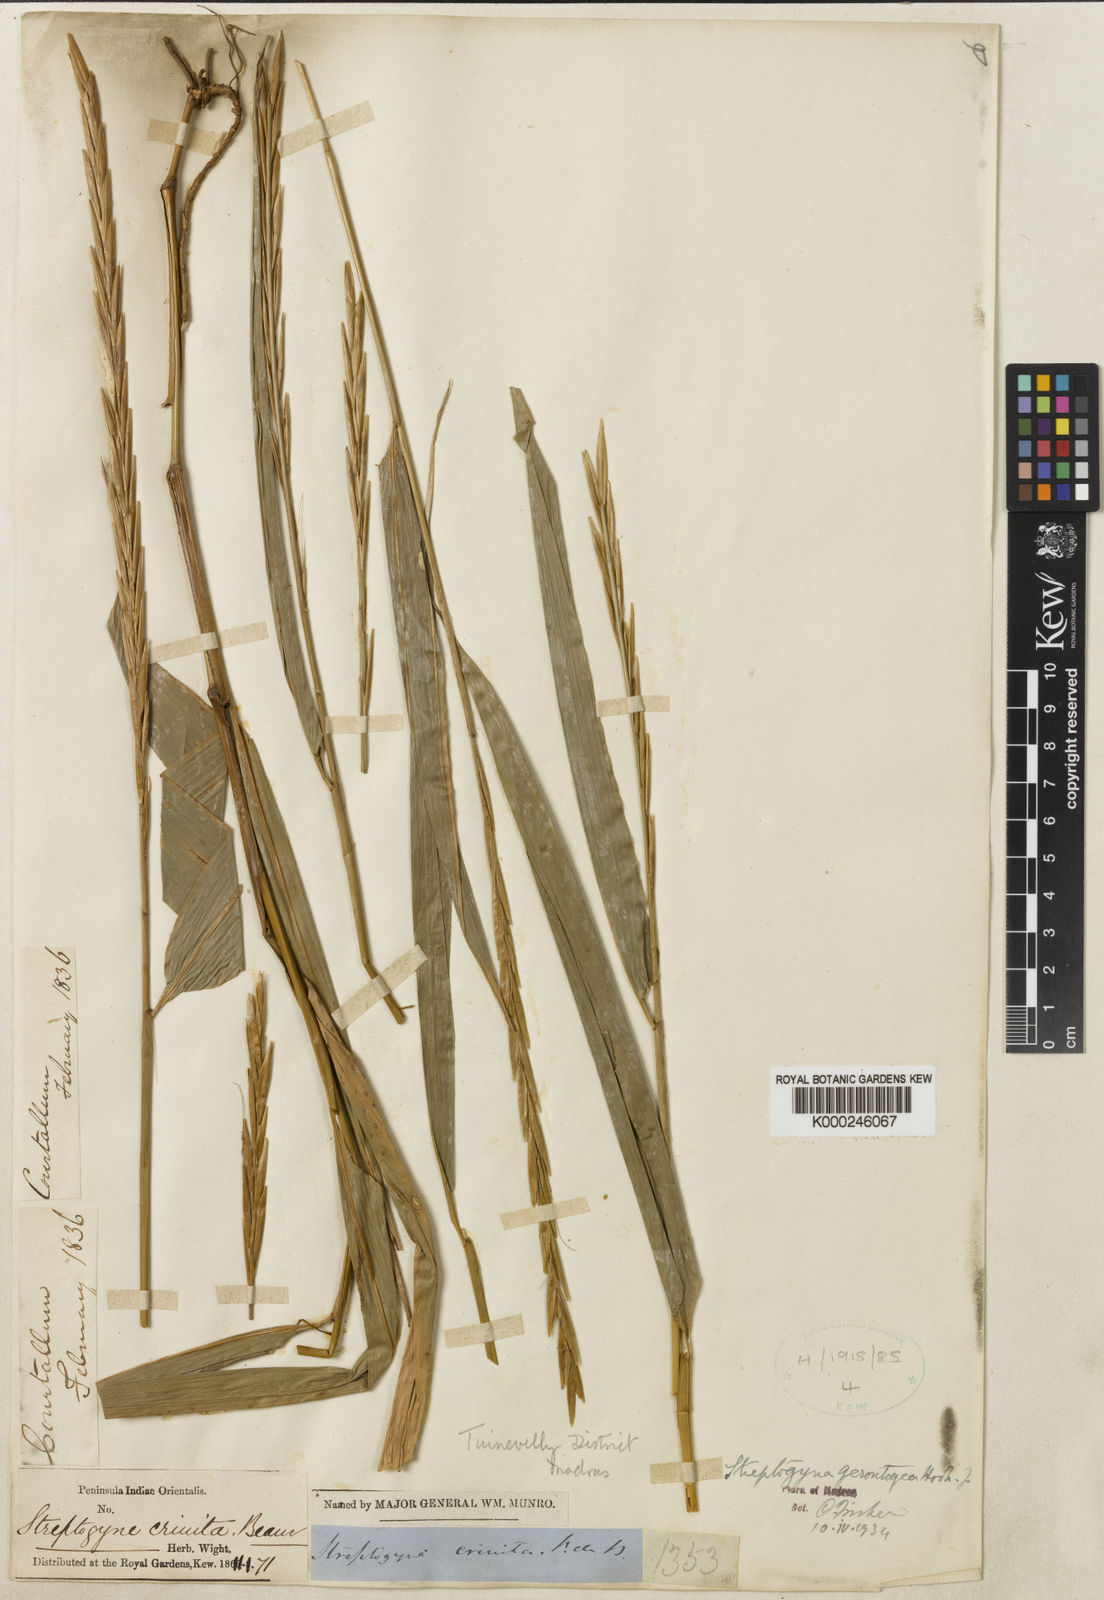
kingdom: Plantae
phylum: Tracheophyta
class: Liliopsida
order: Poales
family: Poaceae
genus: Streptogyna
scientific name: Streptogyna crinita
